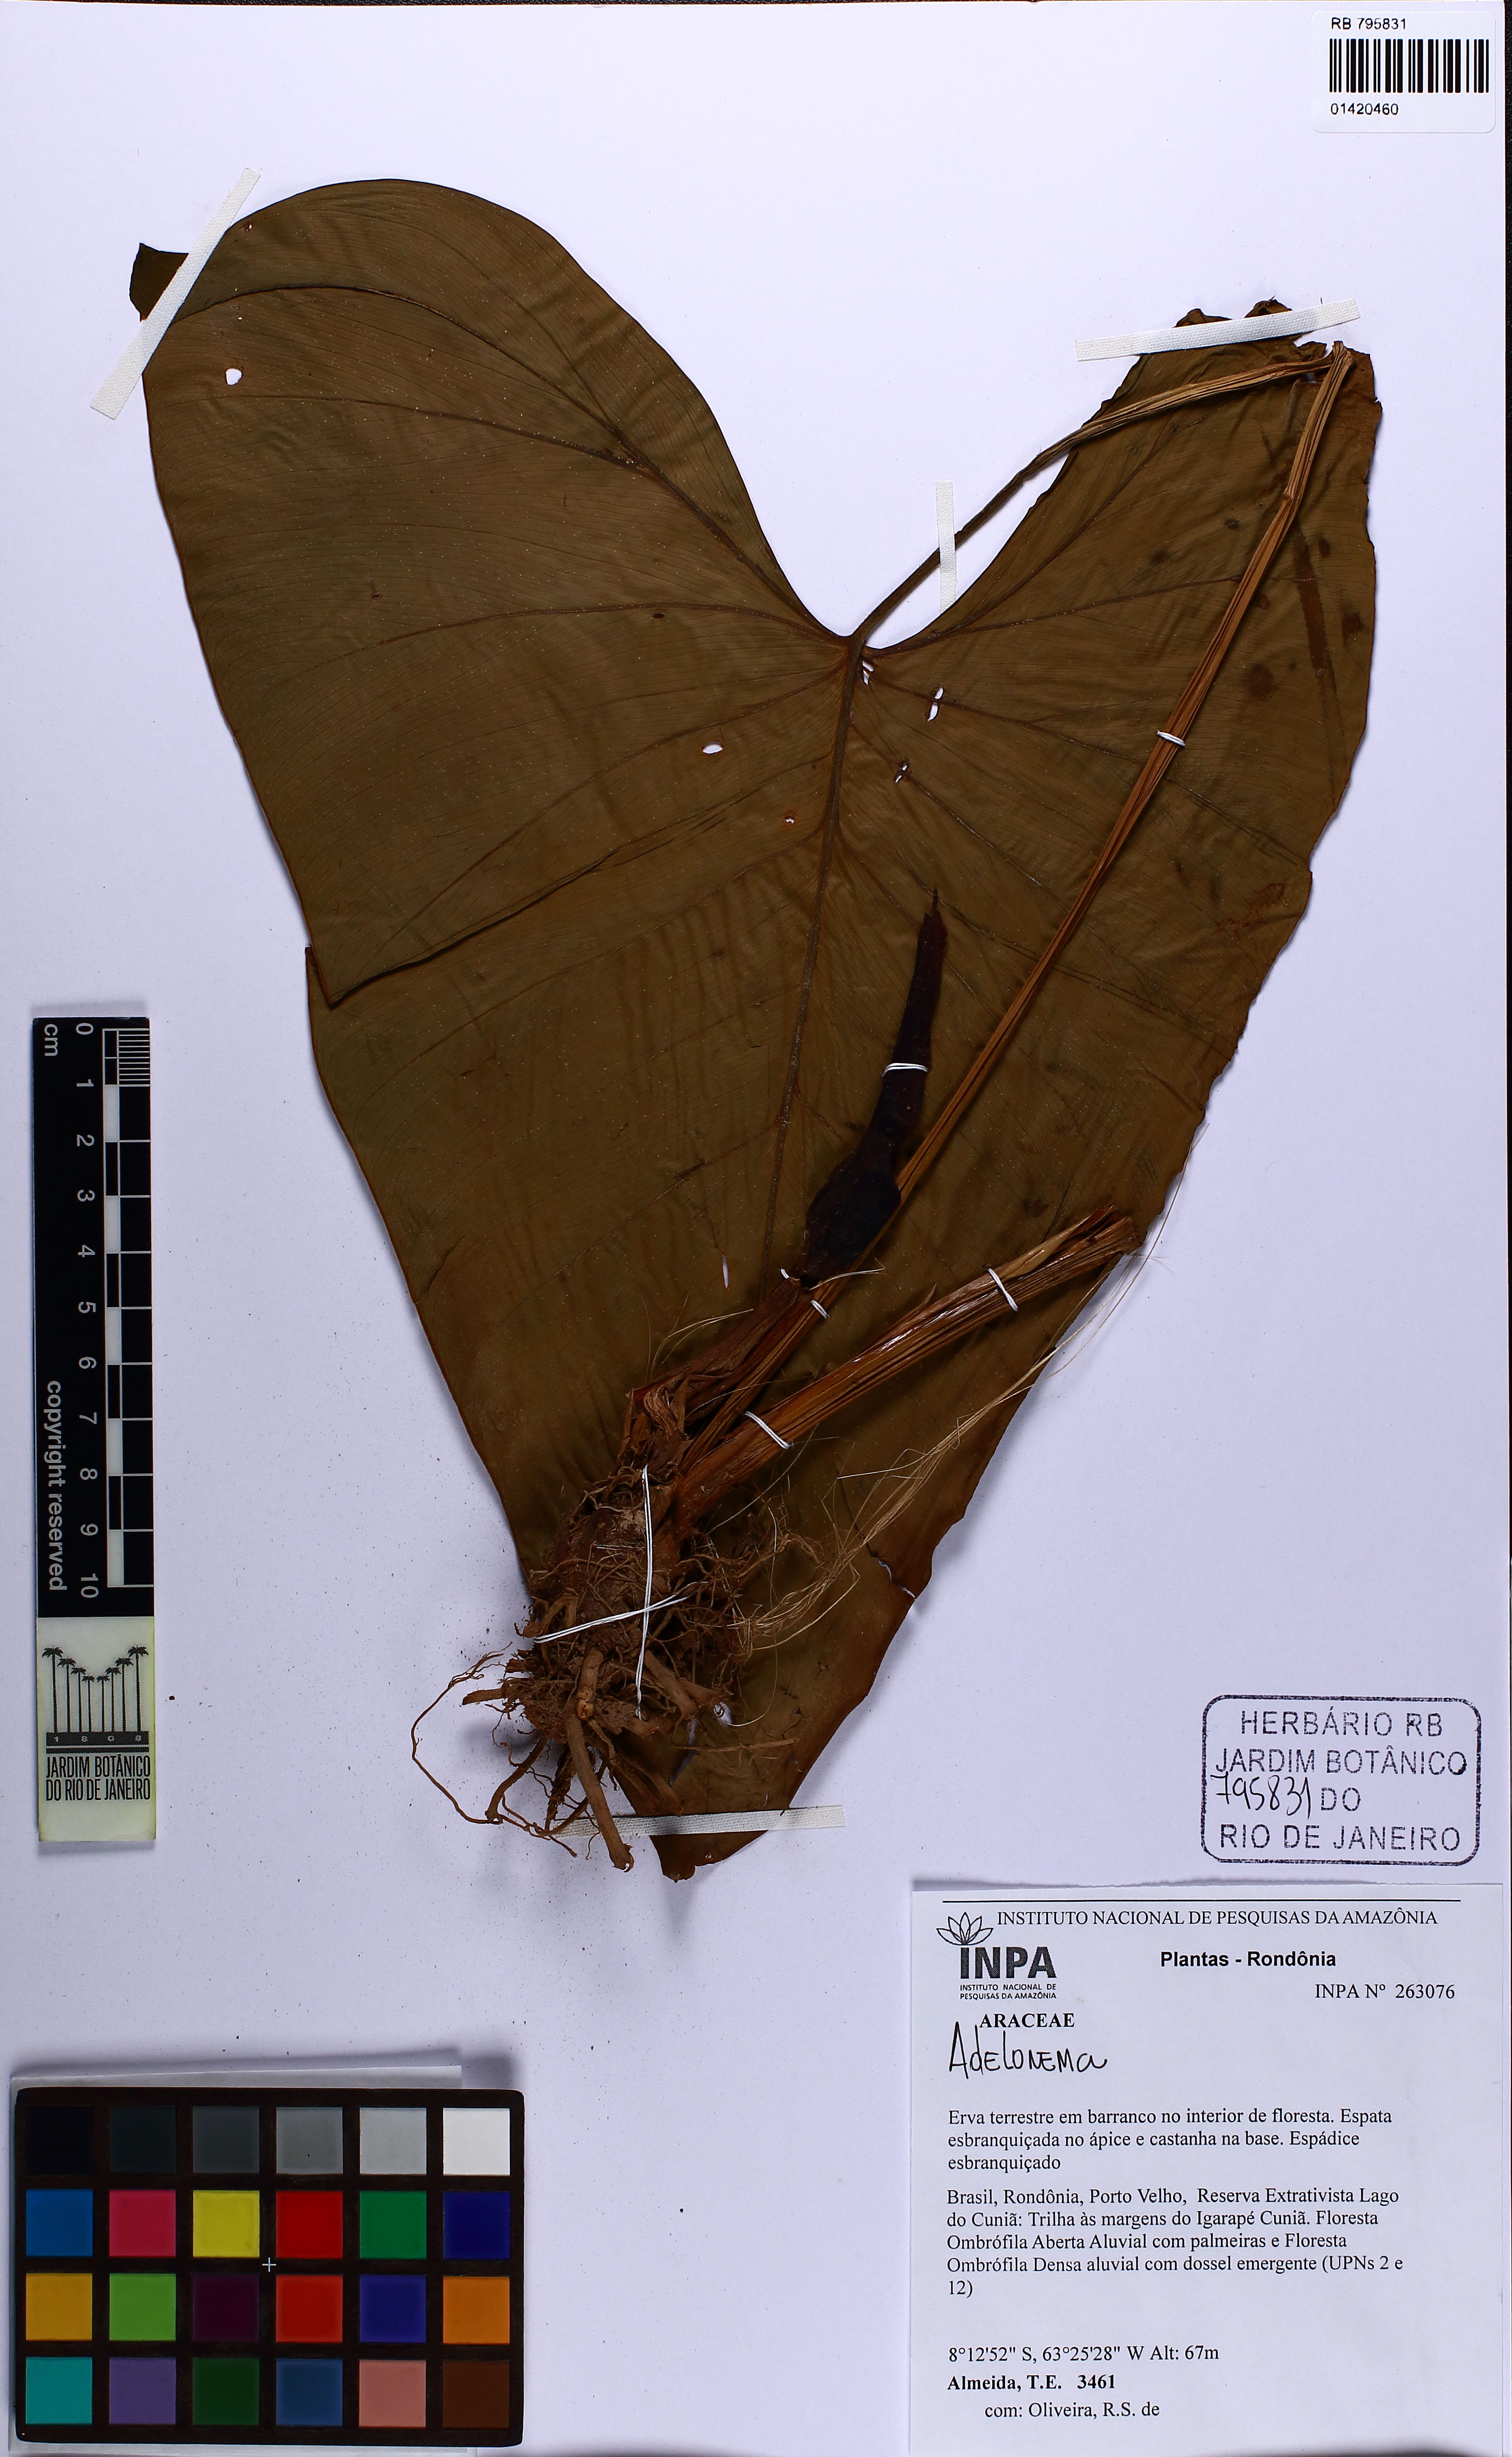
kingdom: Plantae
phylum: Tracheophyta
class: Liliopsida
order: Alismatales
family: Araceae
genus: Adelonema
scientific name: Adelonema
